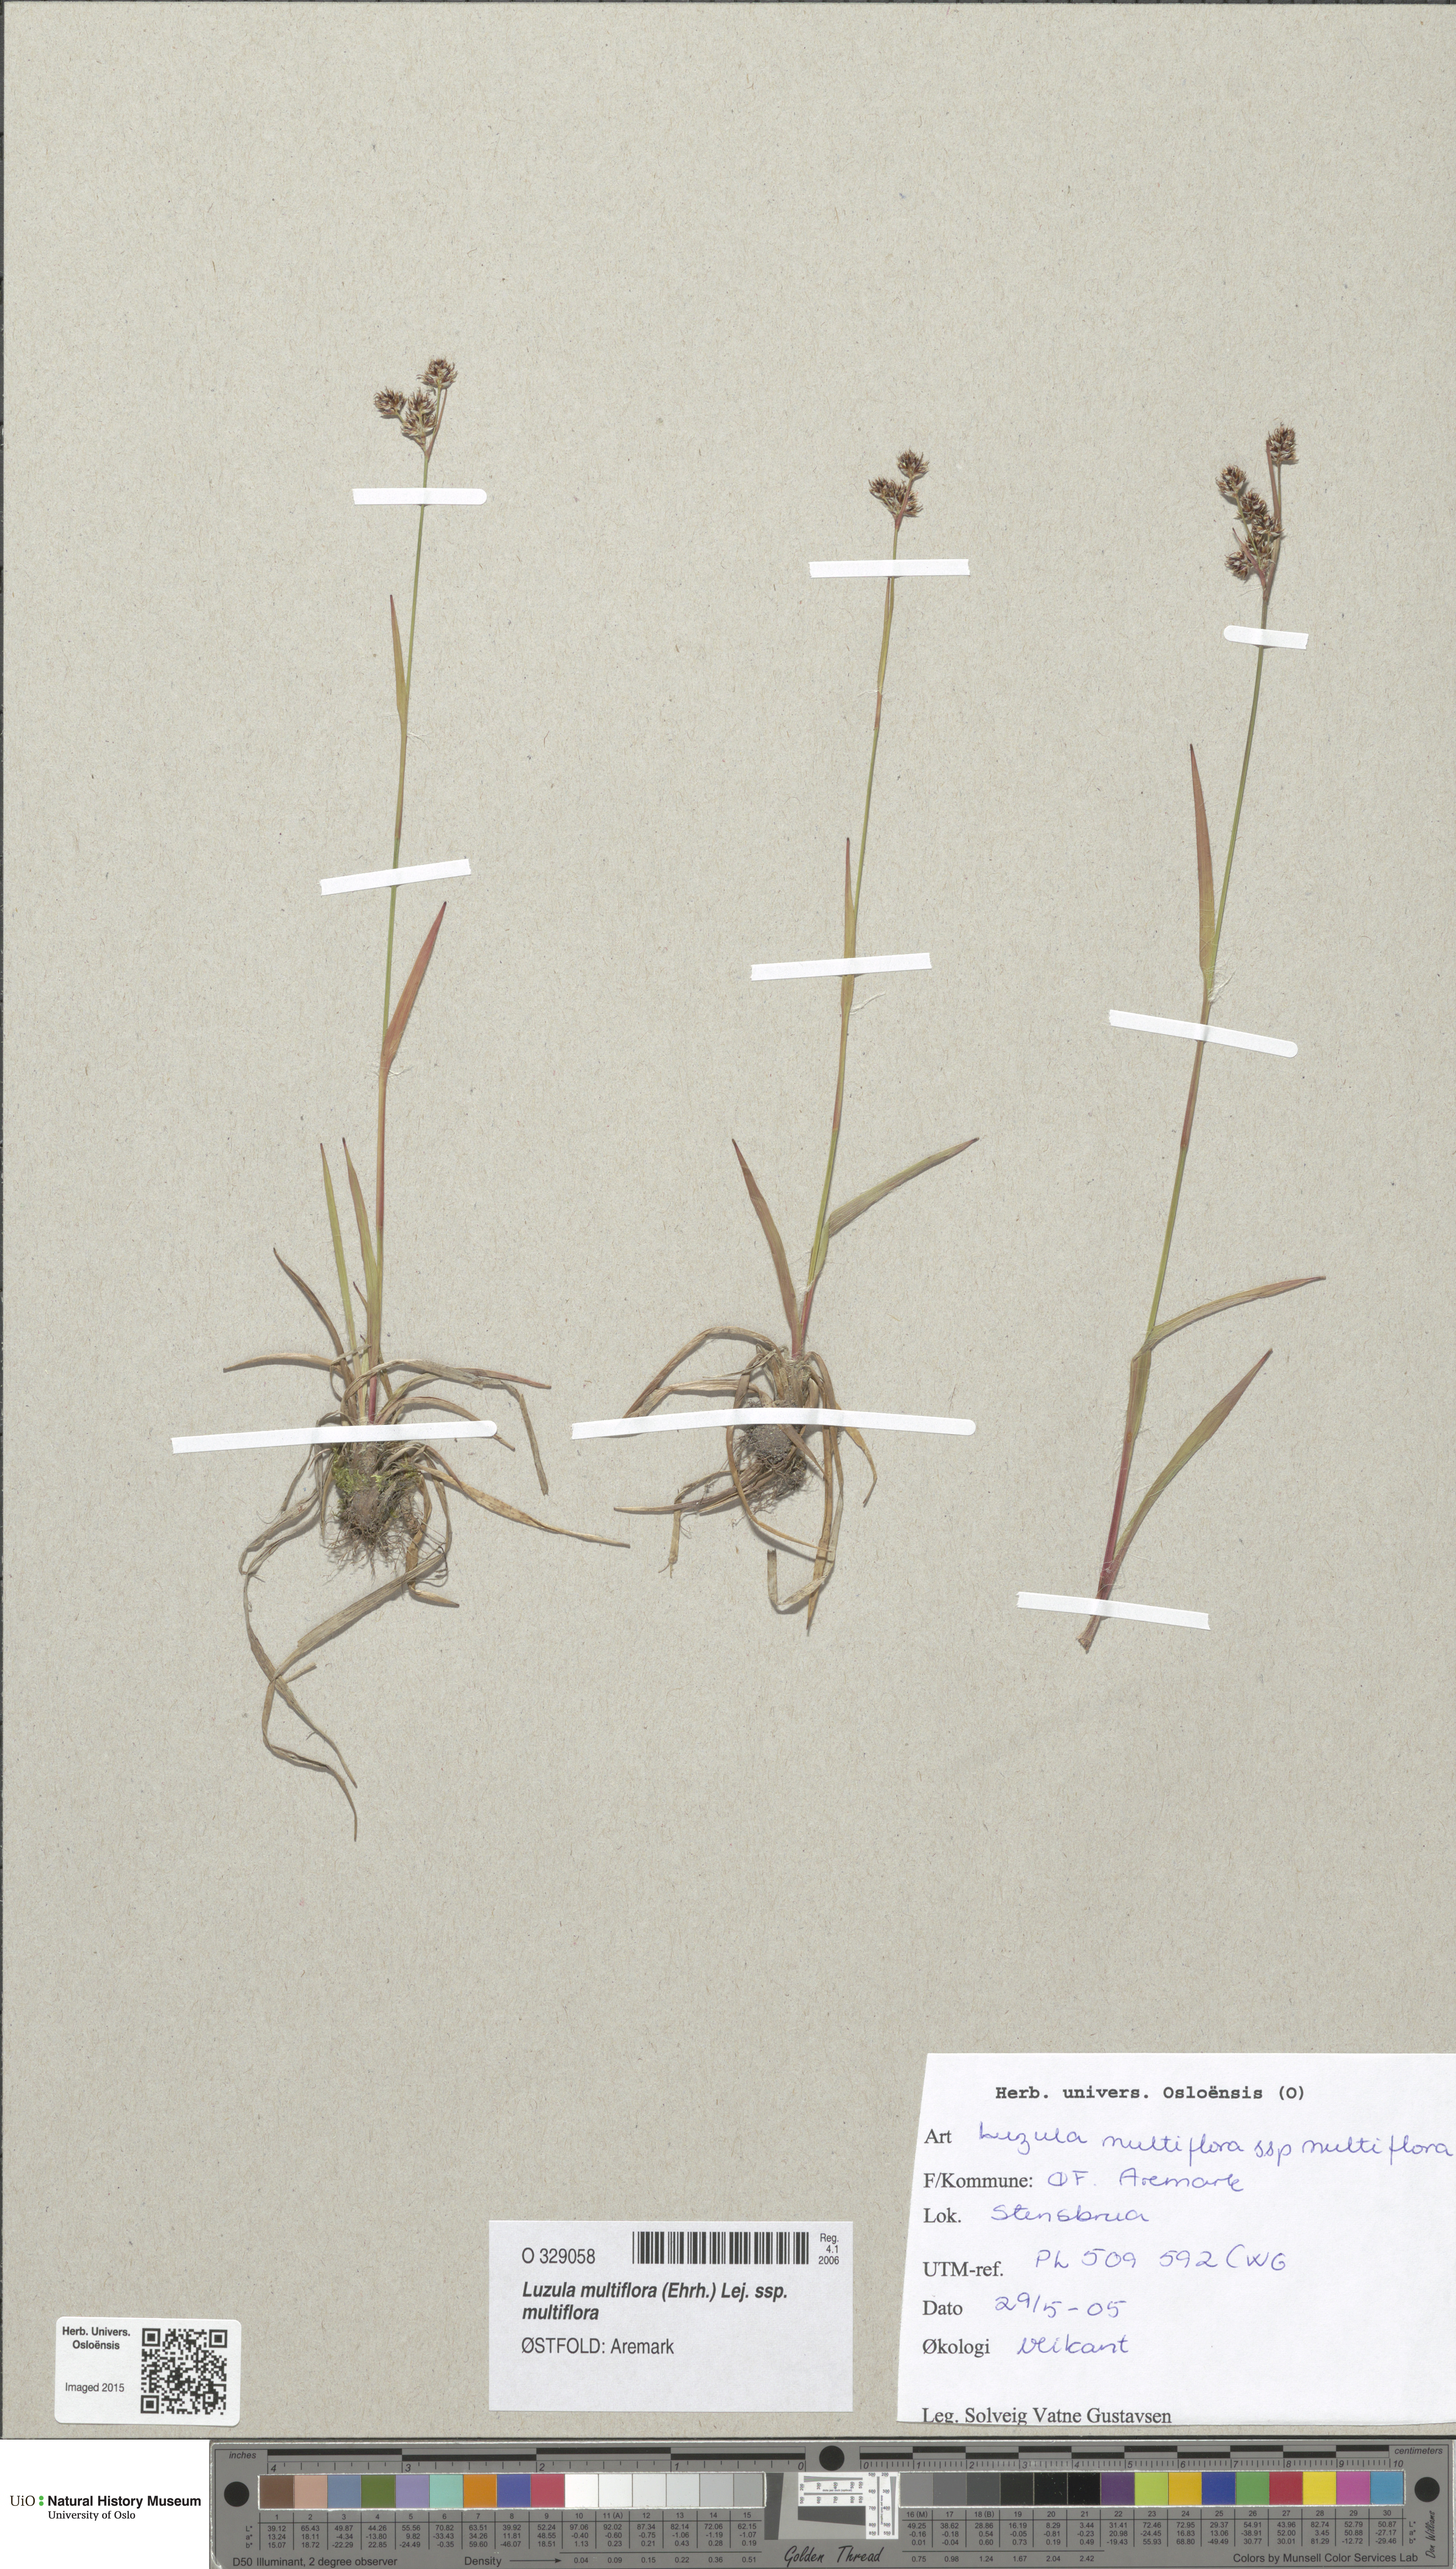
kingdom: Plantae
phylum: Tracheophyta
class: Liliopsida
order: Poales
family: Juncaceae
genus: Luzula
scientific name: Luzula multiflora
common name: Heath wood-rush
